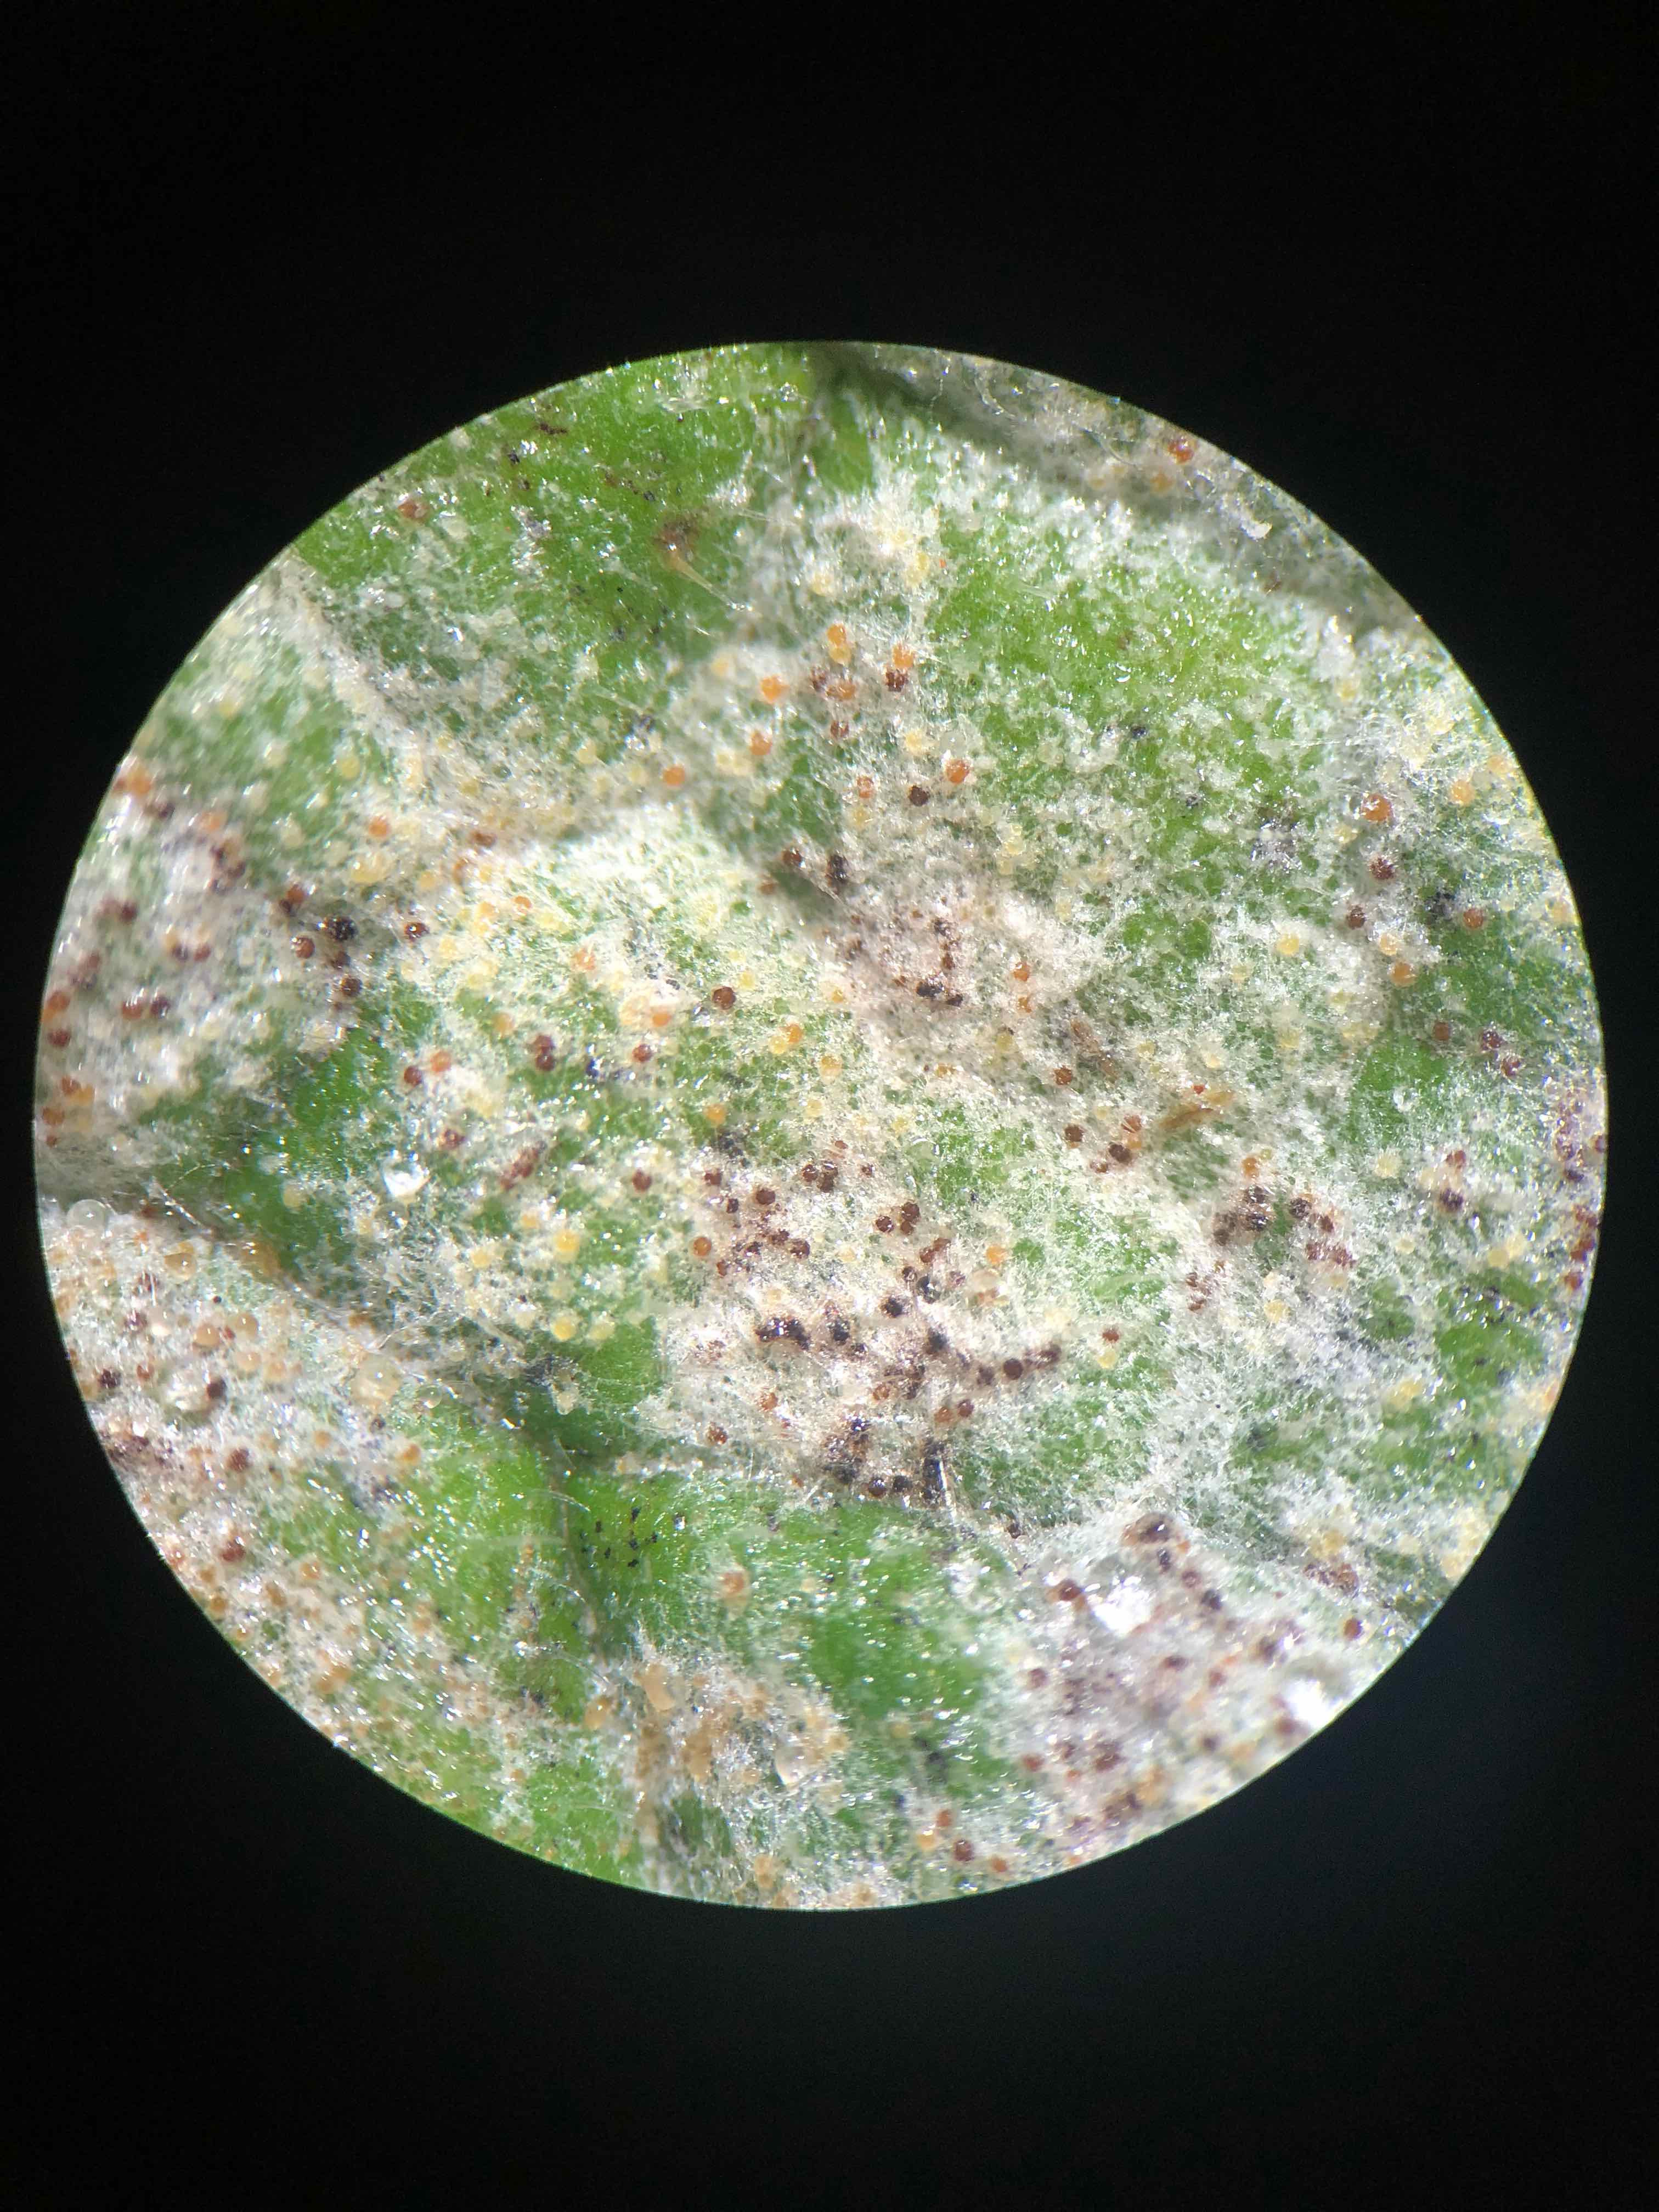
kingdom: Fungi
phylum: Ascomycota
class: Leotiomycetes
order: Helotiales
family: Erysiphaceae
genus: Golovinomyces
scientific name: Golovinomyces asperifoliorum
